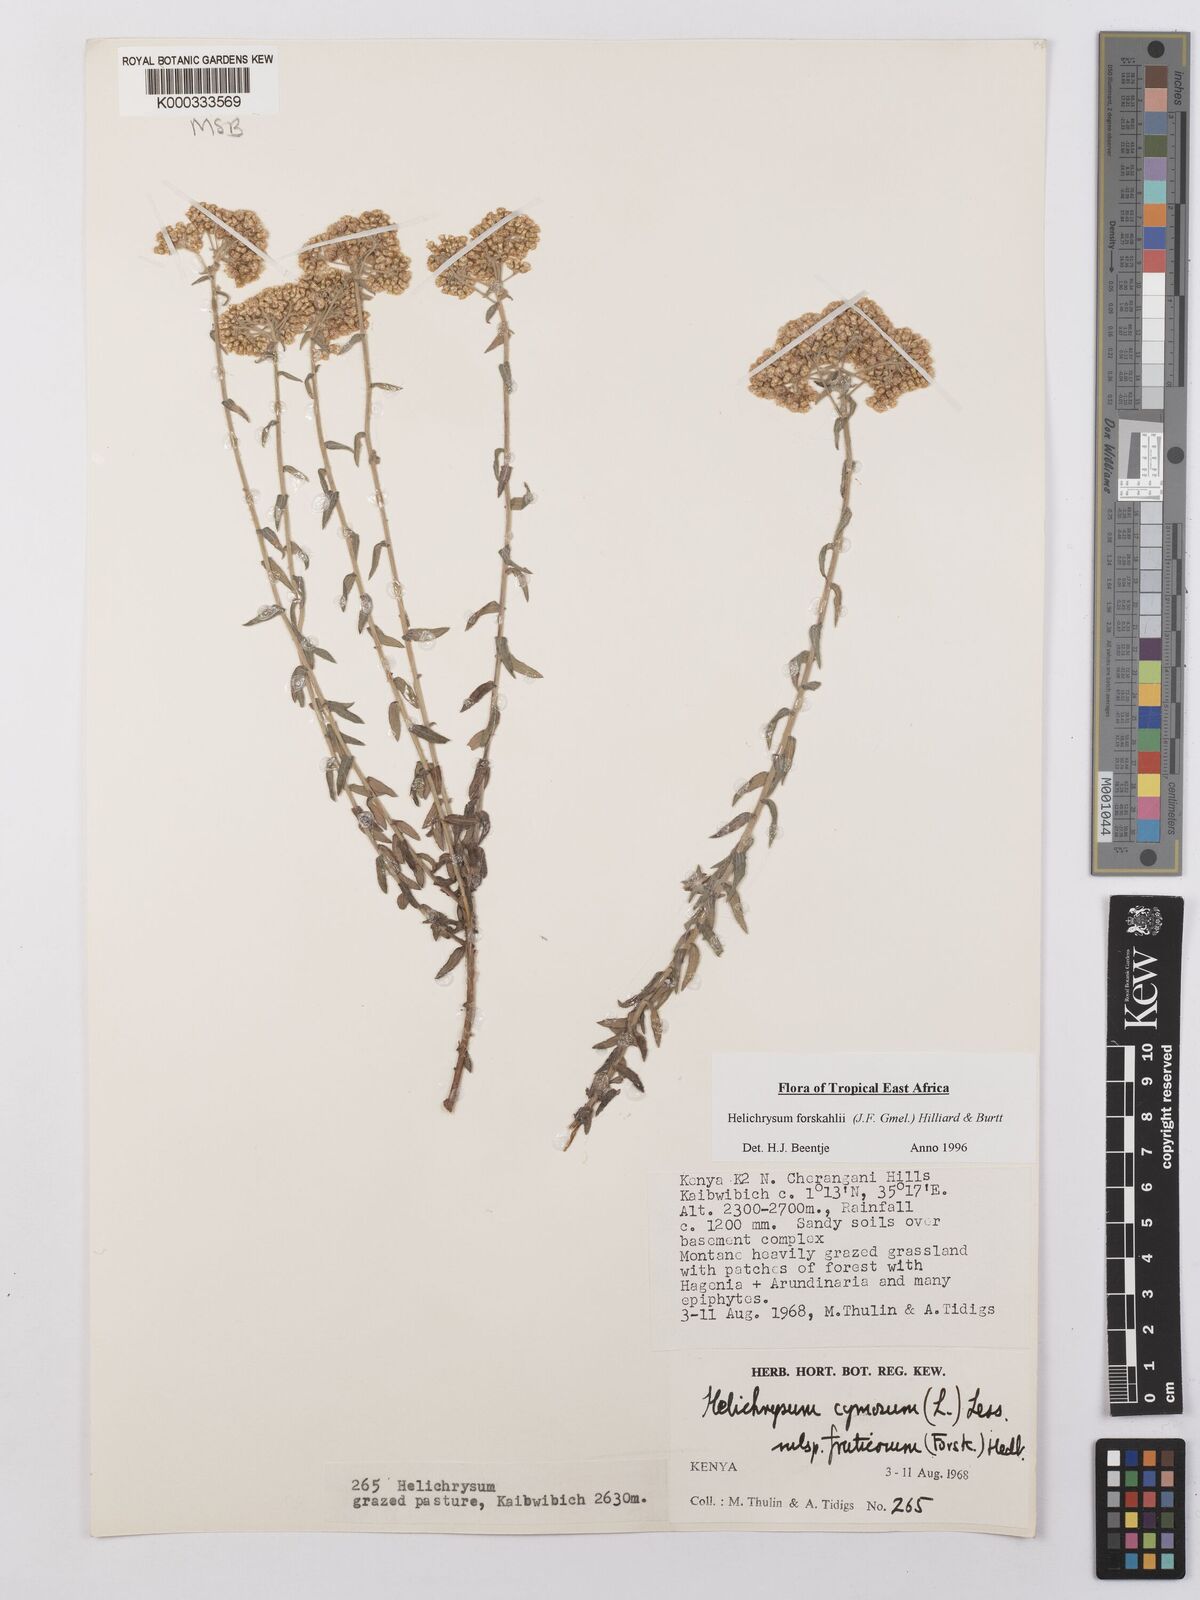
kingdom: Plantae
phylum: Tracheophyta
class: Magnoliopsida
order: Asterales
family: Asteraceae
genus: Helichrysum
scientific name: Helichrysum
